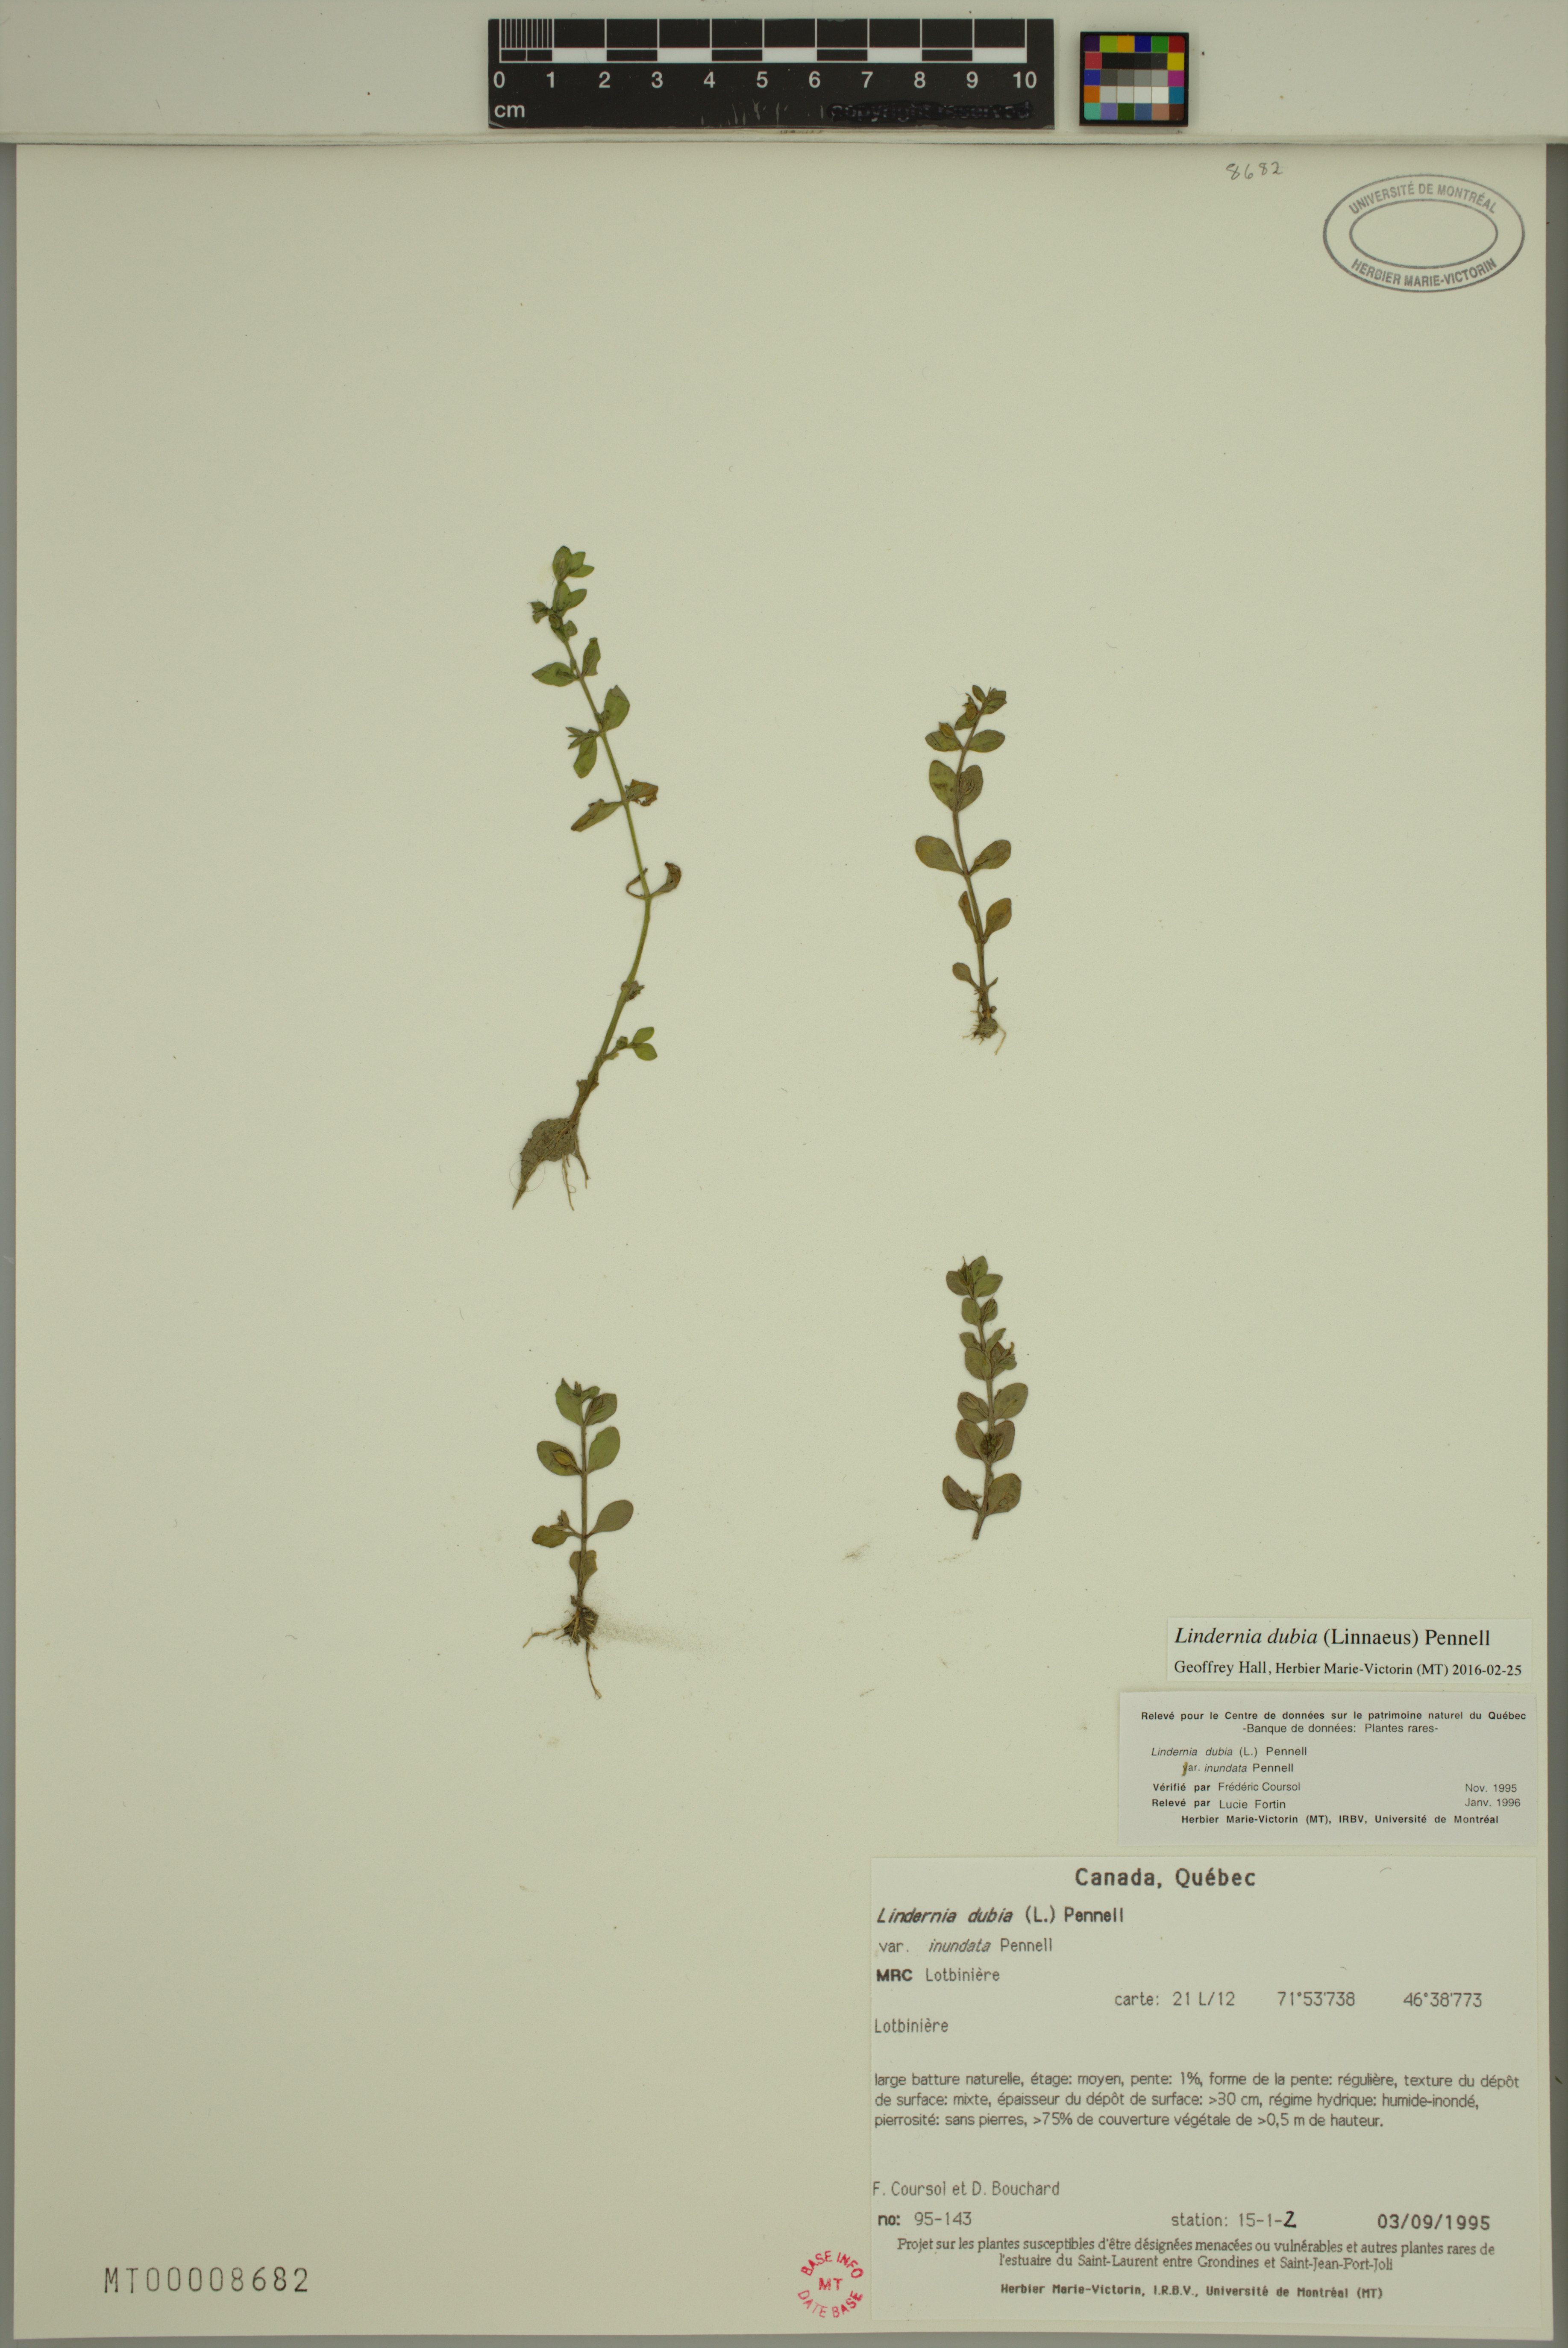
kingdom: Plantae
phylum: Tracheophyta
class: Magnoliopsida
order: Lamiales
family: Linderniaceae
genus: Lindernia
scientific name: Lindernia dubia
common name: Annual false pimpernel
